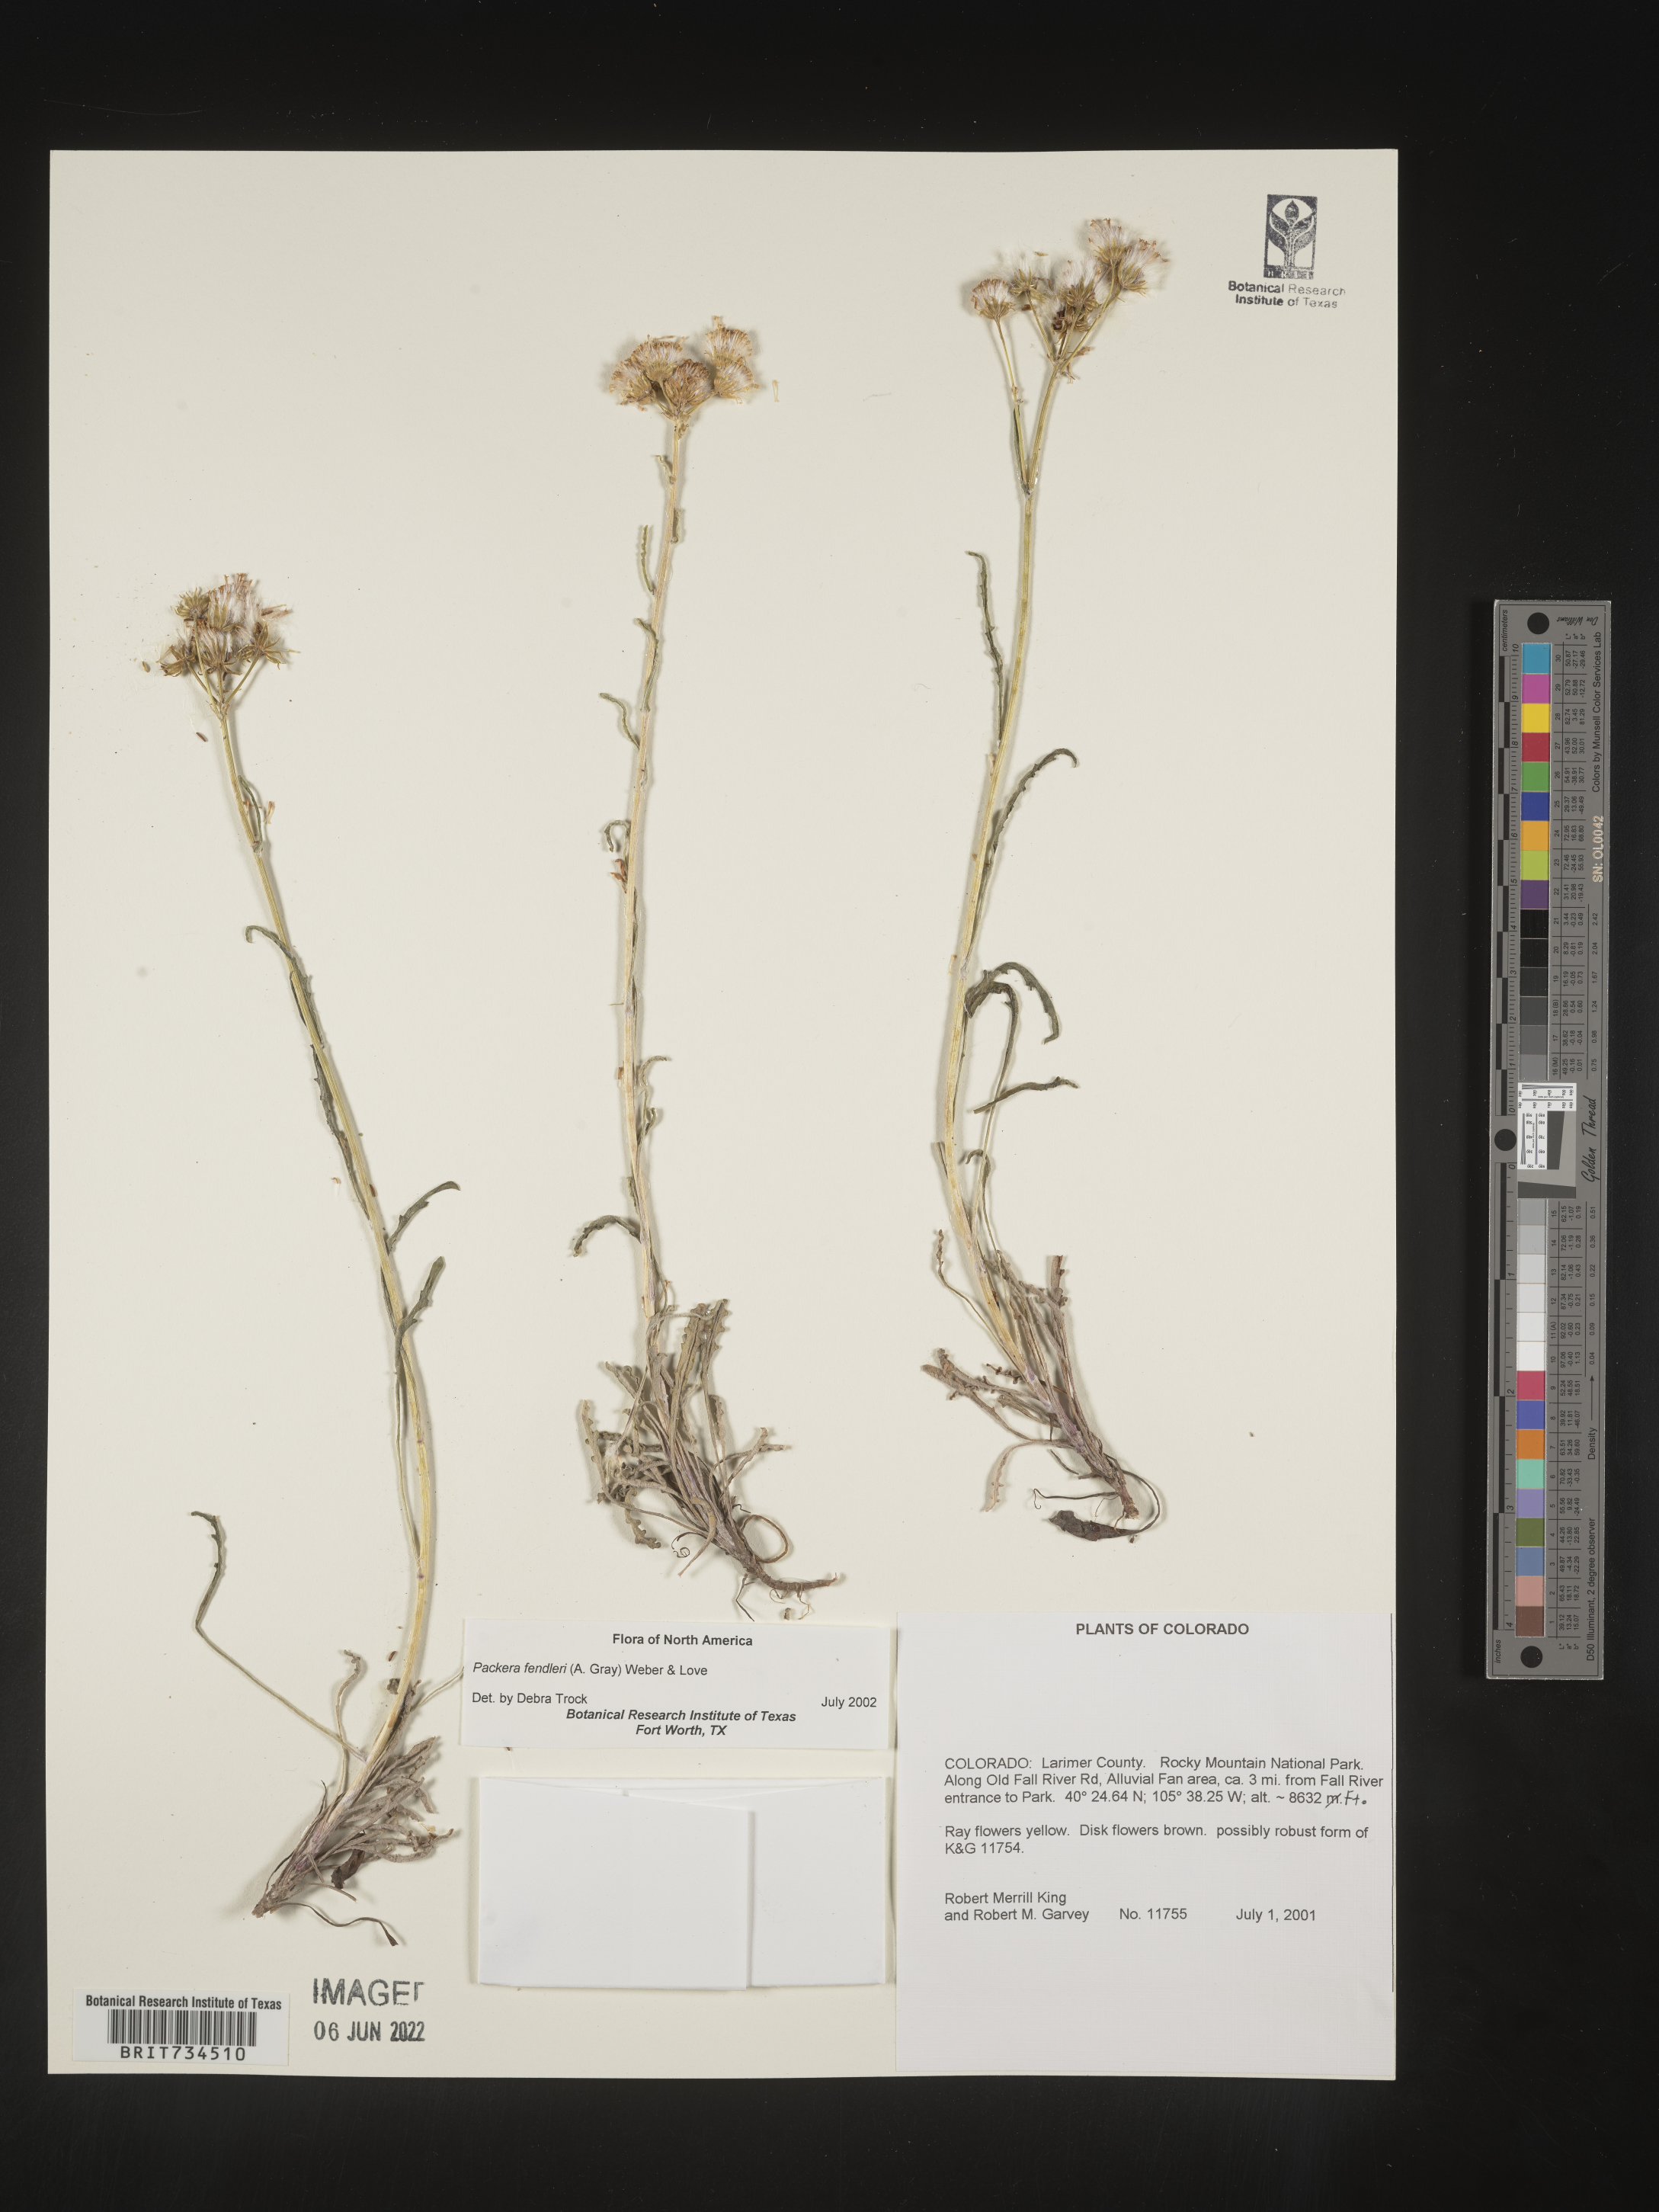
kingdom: Plantae
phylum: Tracheophyta
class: Magnoliopsida
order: Asterales
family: Asteraceae
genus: Packera
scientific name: Packera fendleri
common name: Notch-leaf butterweed
